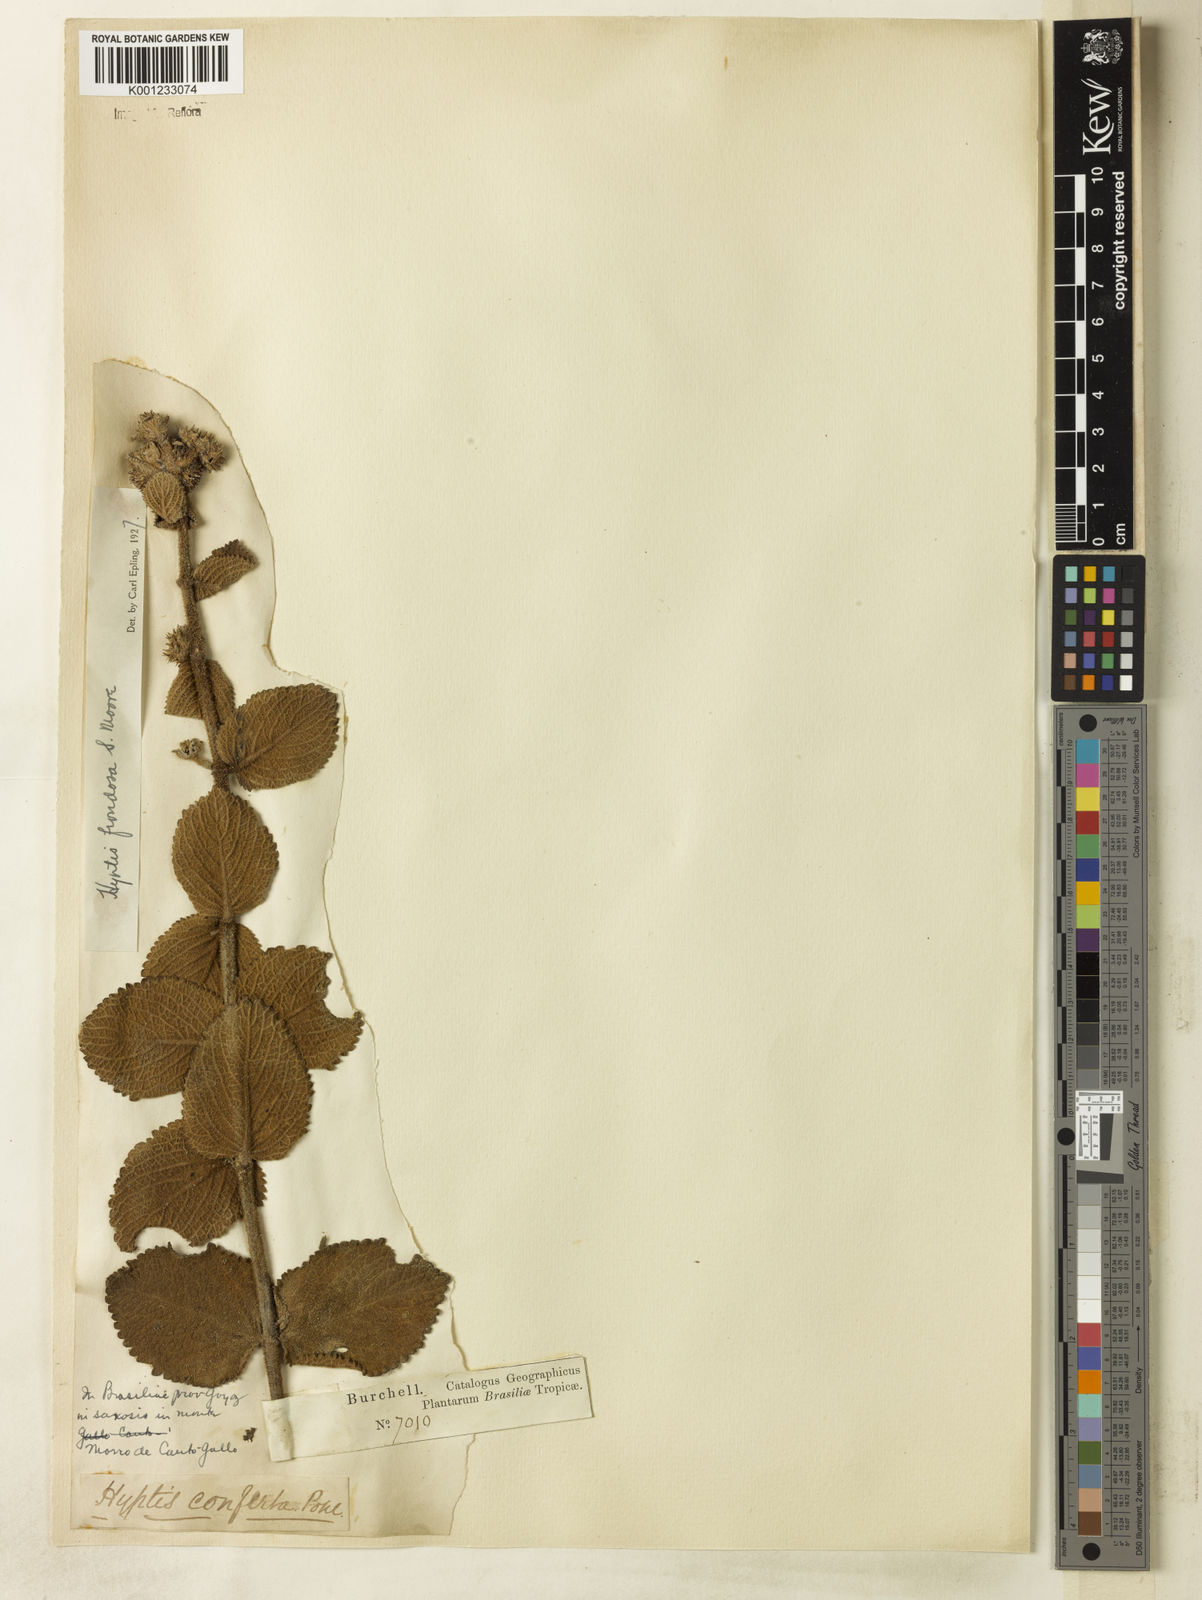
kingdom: Plantae
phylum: Tracheophyta
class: Magnoliopsida
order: Lamiales
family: Lamiaceae
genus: Hyptis
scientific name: Hyptis villosa
